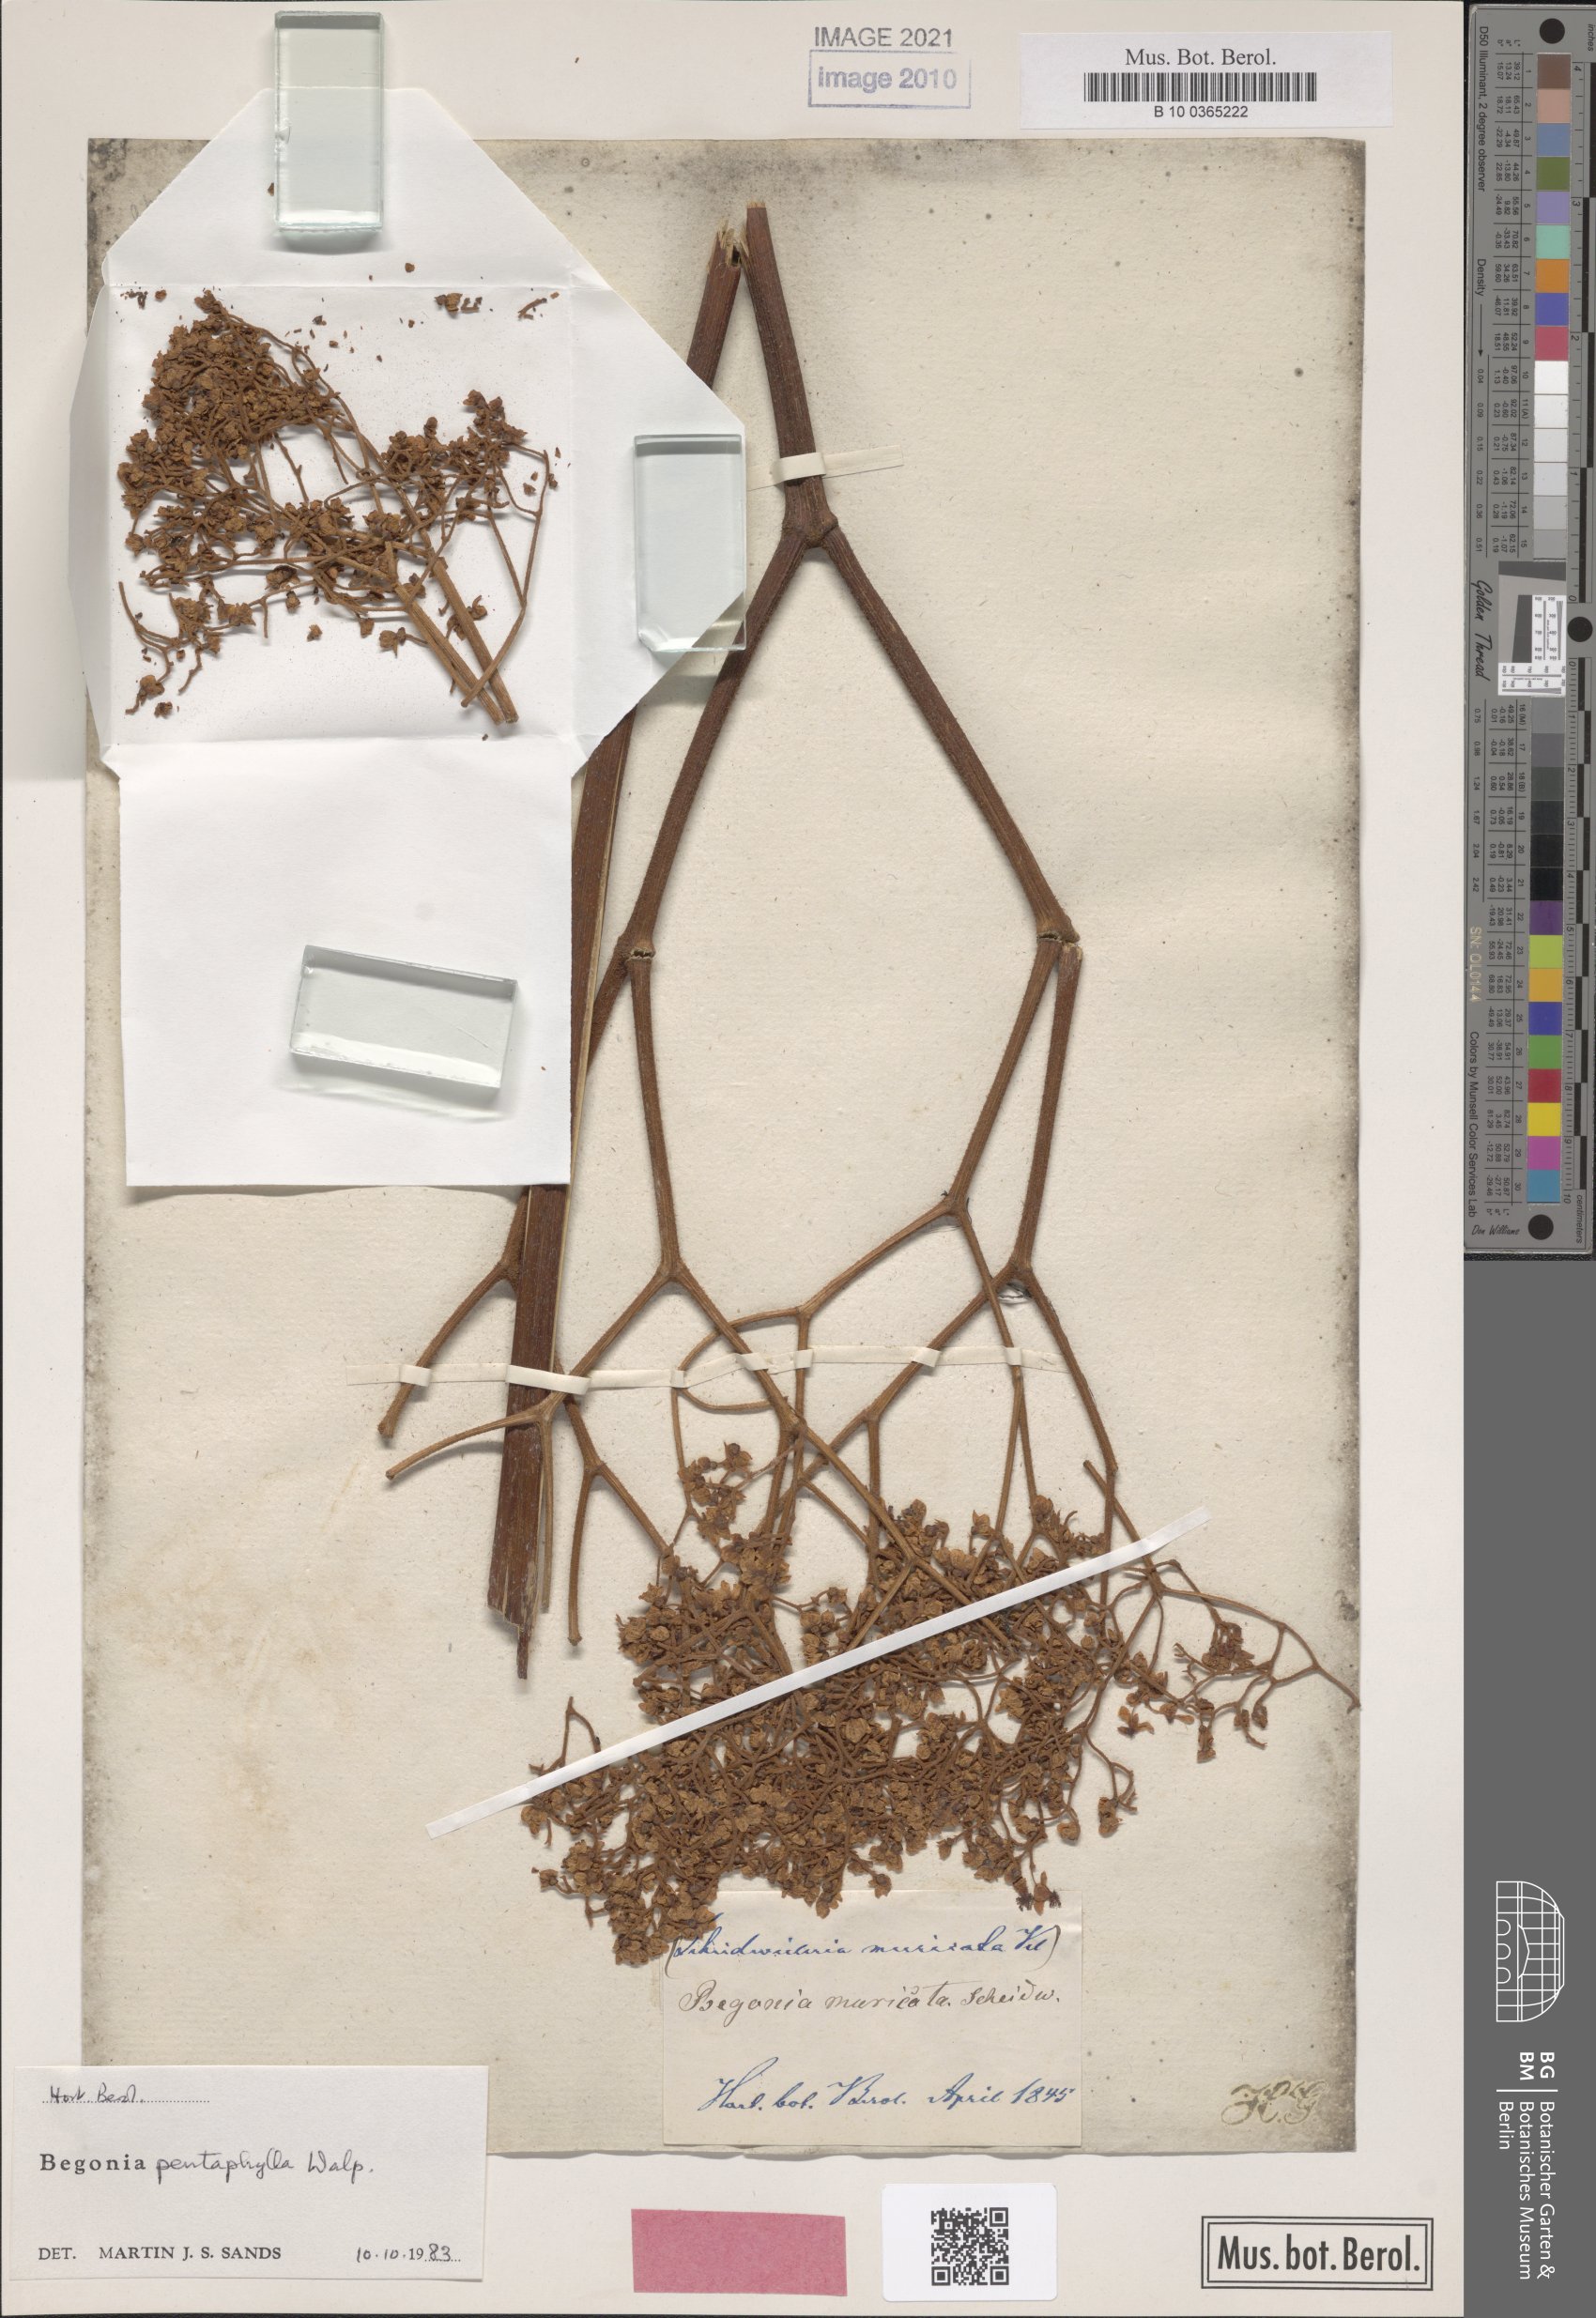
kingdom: Plantae
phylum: Tracheophyta
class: Magnoliopsida
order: Cucurbitales
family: Begoniaceae
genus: Begonia
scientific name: Begonia pentaphylla
